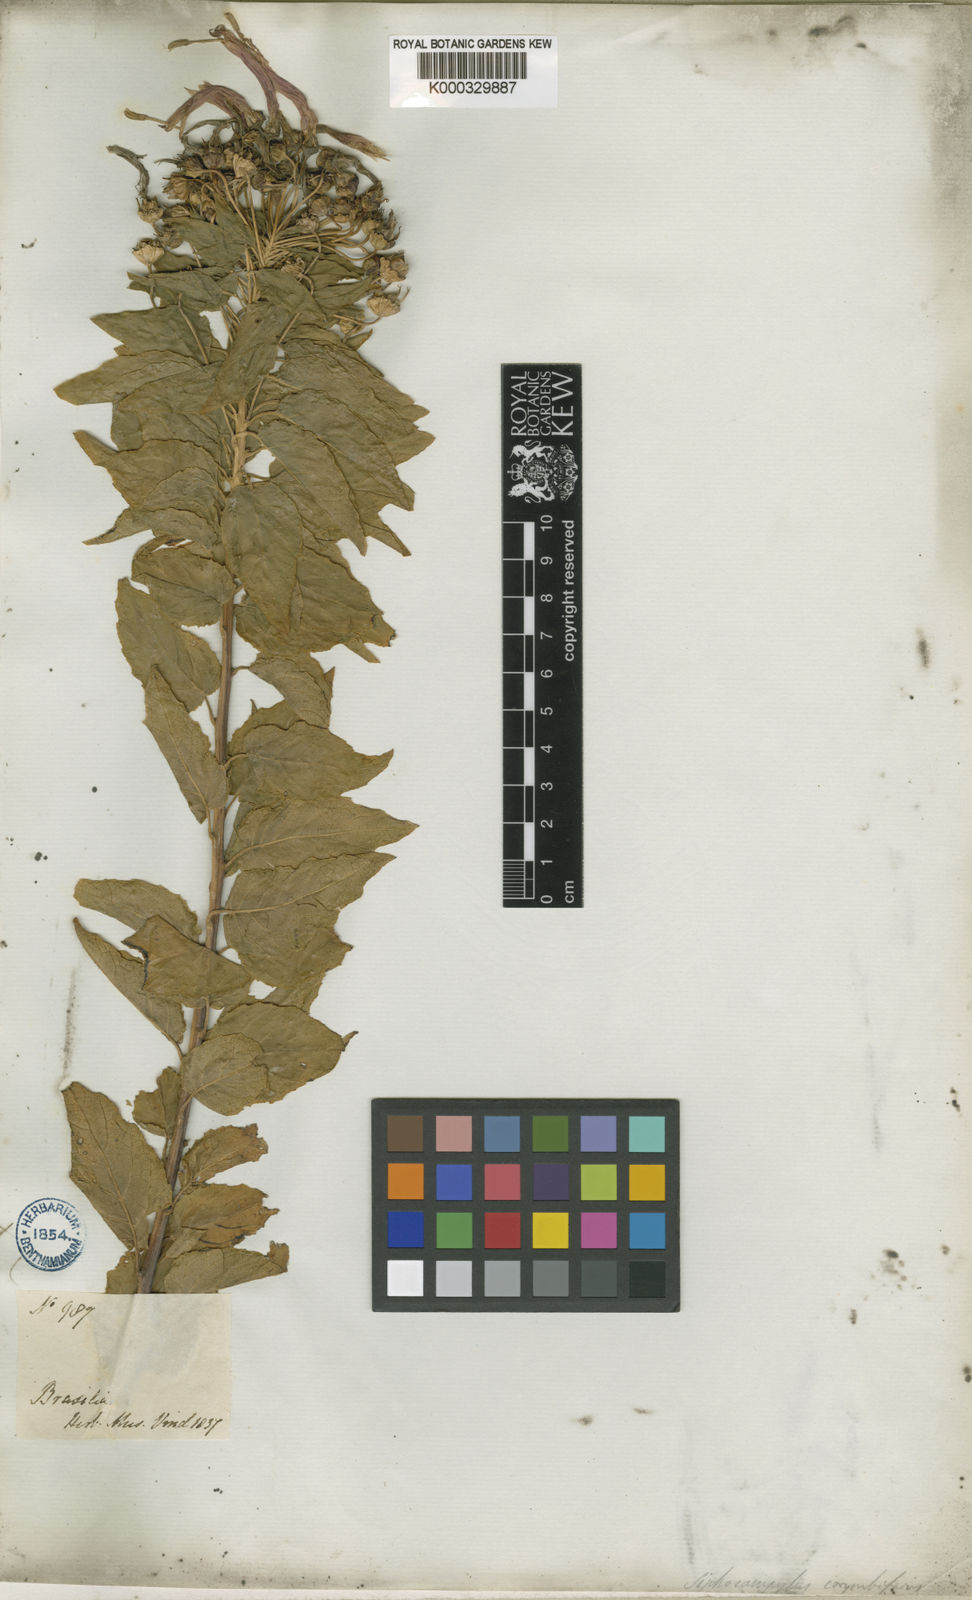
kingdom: Plantae
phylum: Tracheophyta
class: Magnoliopsida
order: Asterales
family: Campanulaceae
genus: Siphocampylus
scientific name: Siphocampylus corymbifer
